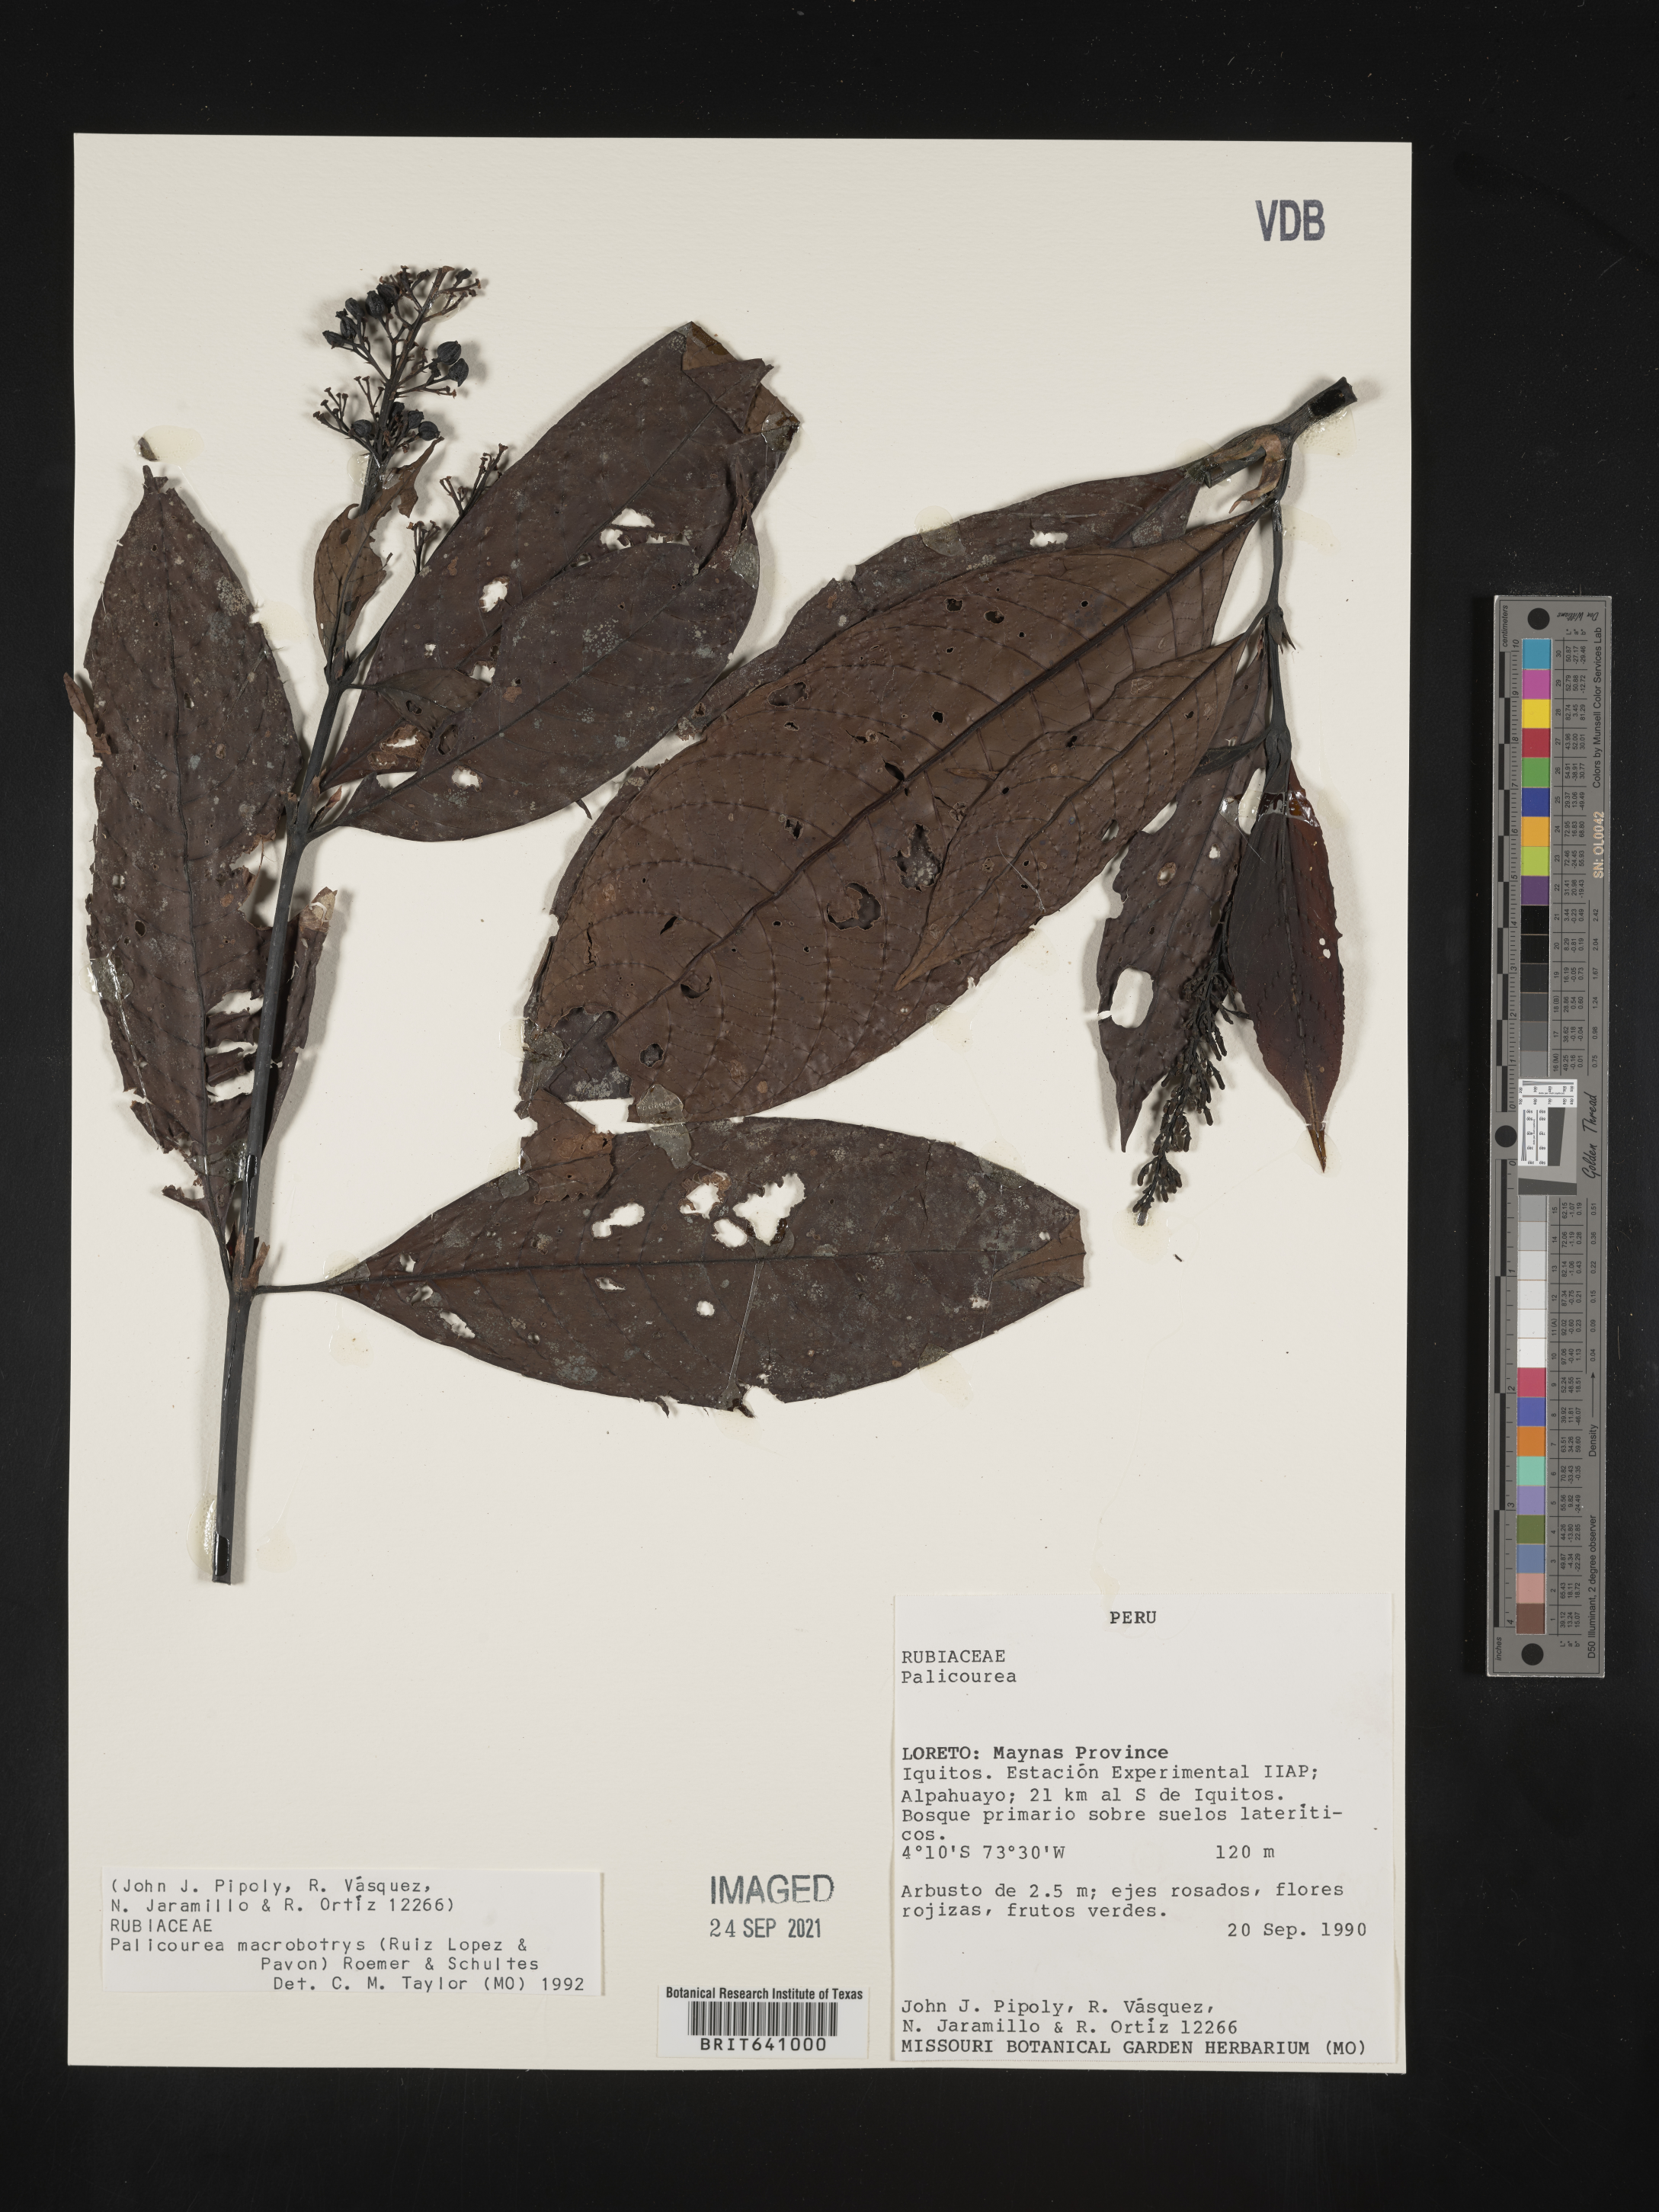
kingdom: Plantae
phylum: Tracheophyta
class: Magnoliopsida
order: Gentianales
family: Rubiaceae
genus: Palicourea
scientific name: Palicourea
